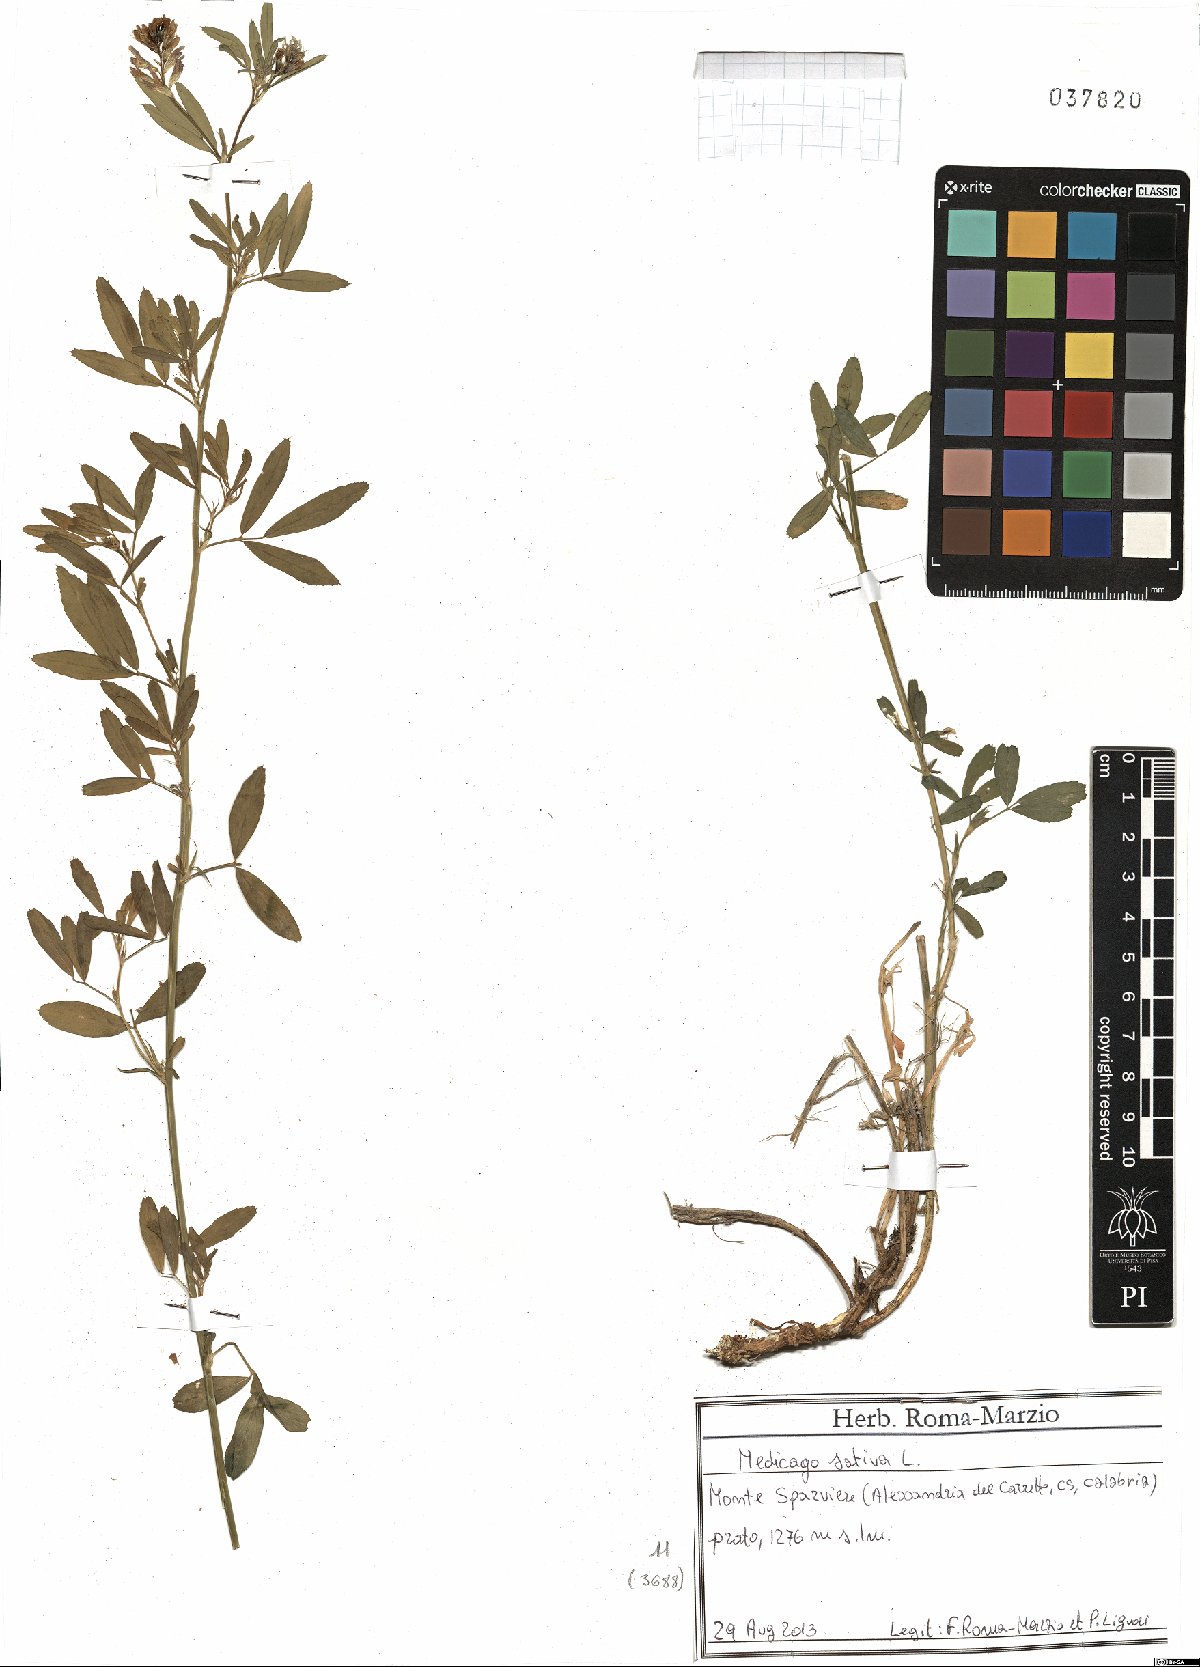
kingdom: Plantae
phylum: Tracheophyta
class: Magnoliopsida
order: Fabales
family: Fabaceae
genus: Medicago
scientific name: Medicago sativa
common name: Alfalfa
